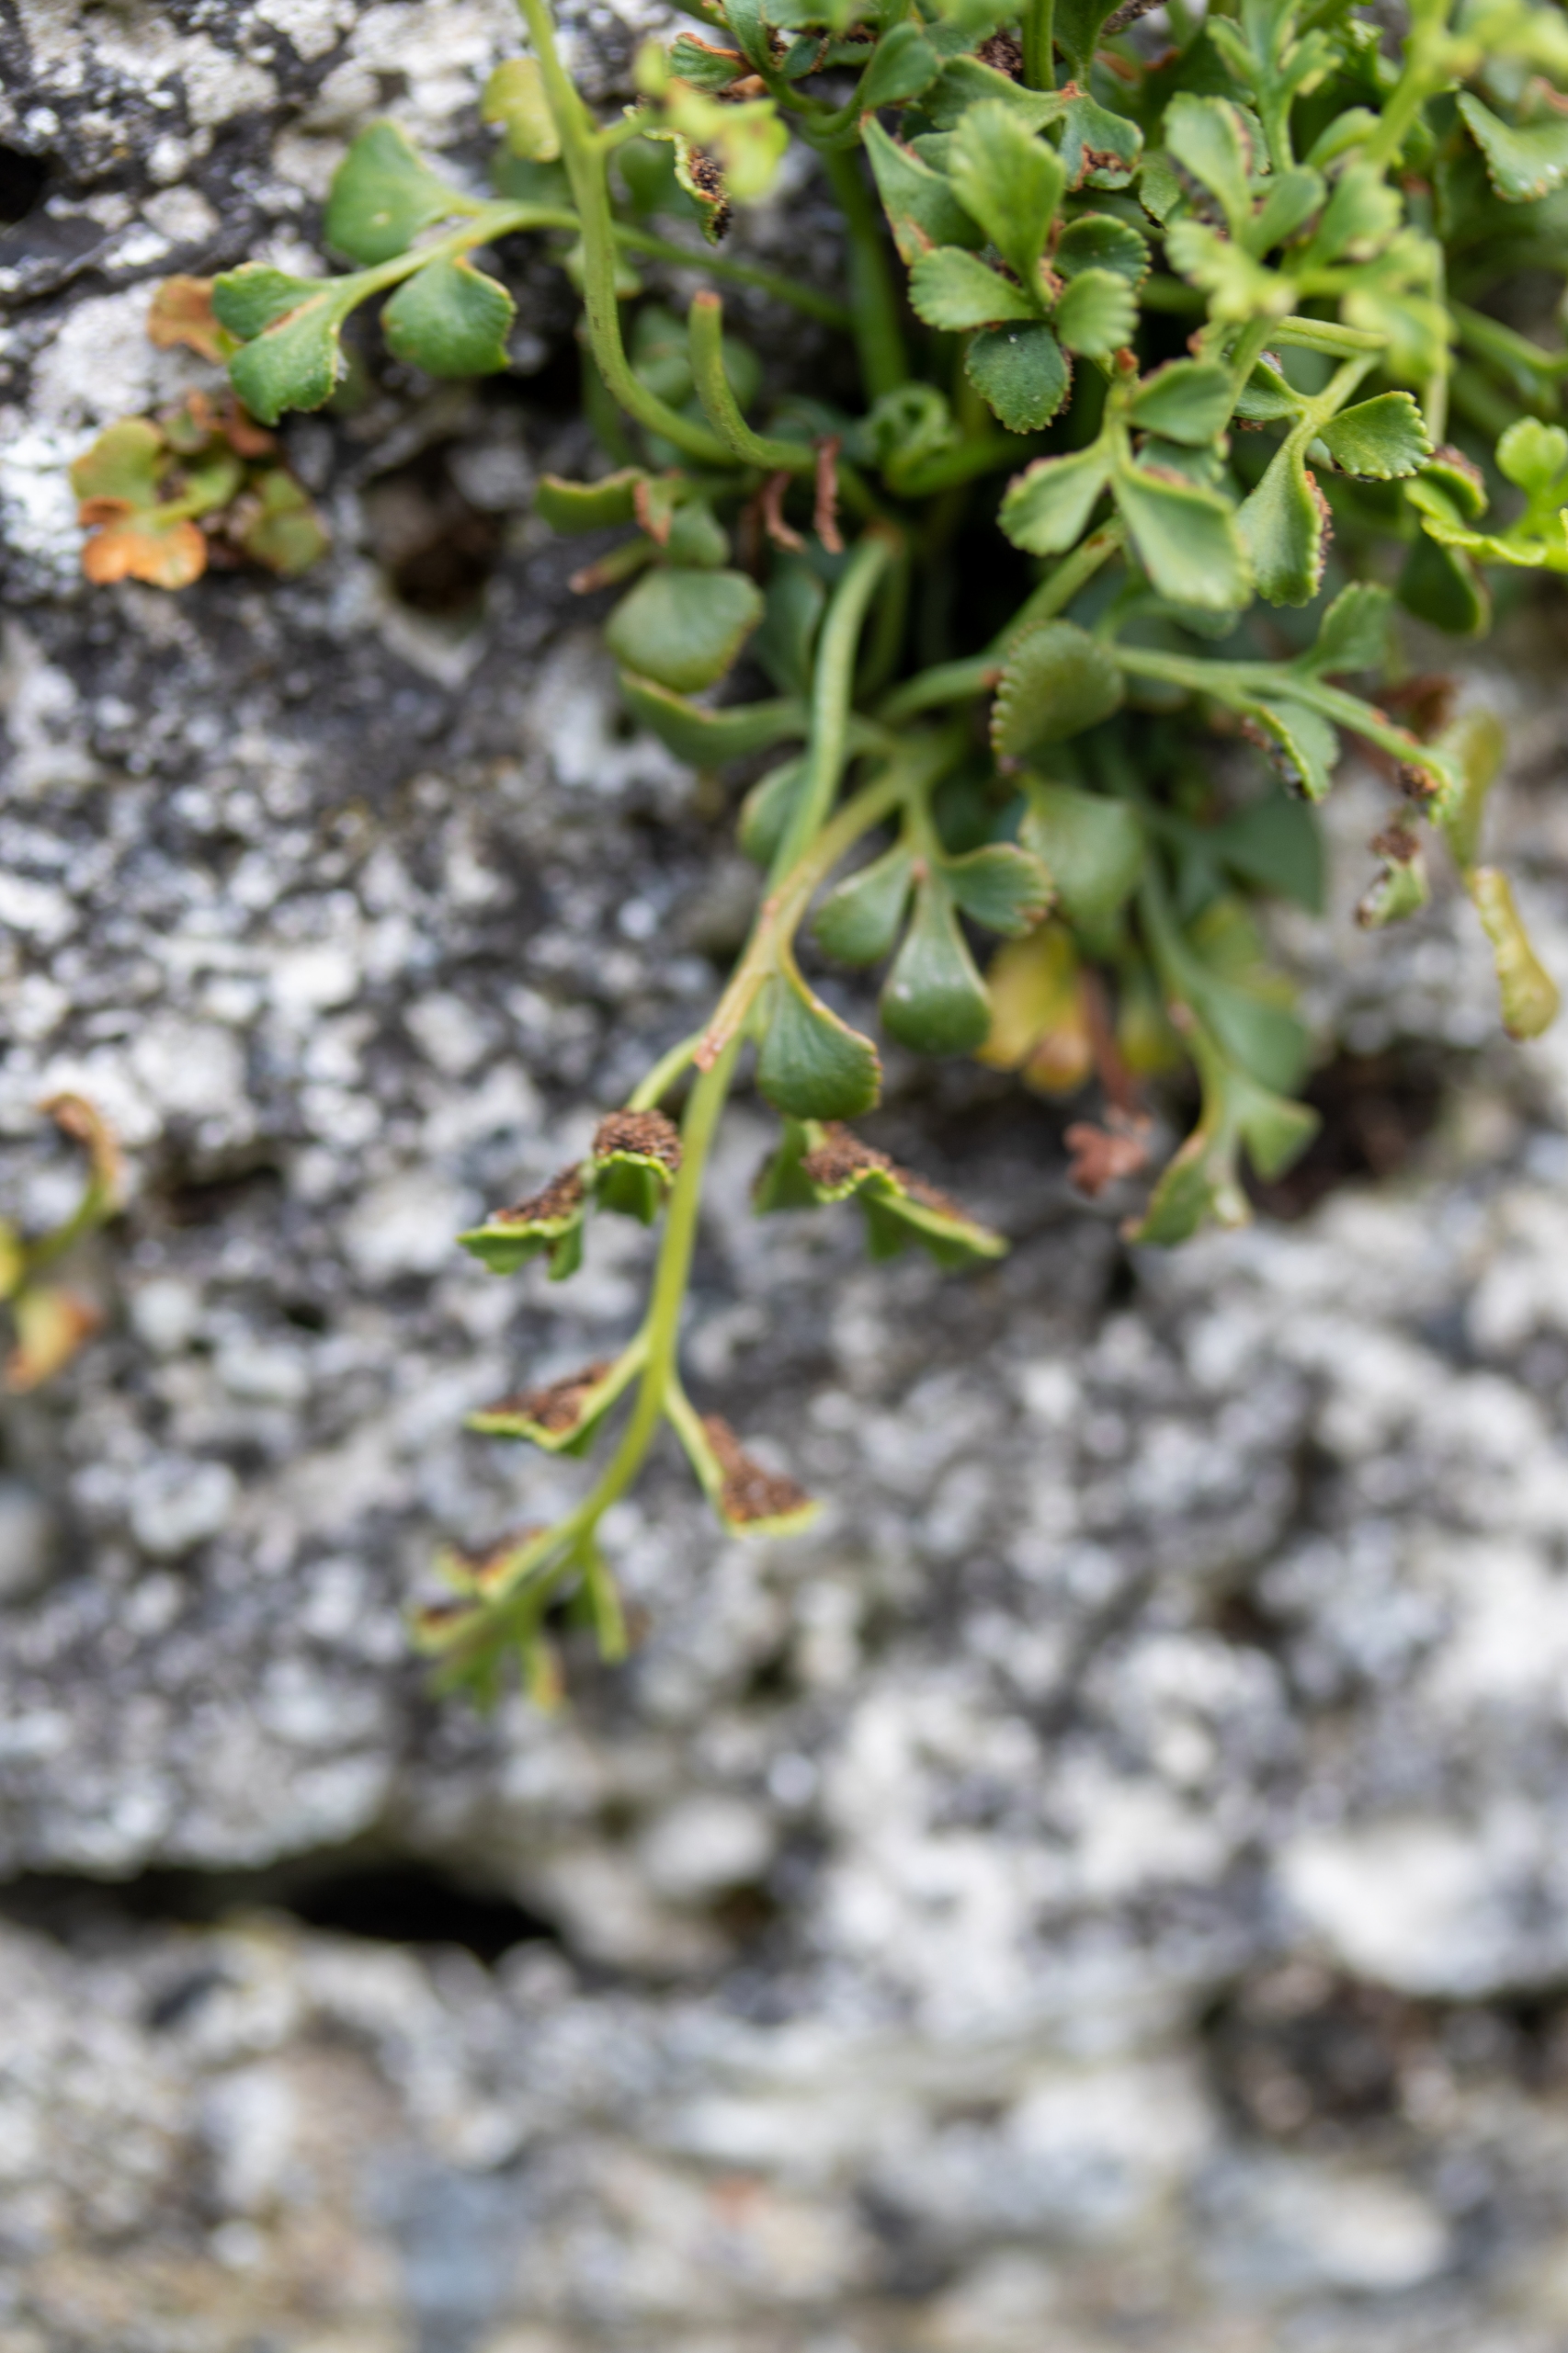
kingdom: Plantae
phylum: Tracheophyta
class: Polypodiopsida
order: Polypodiales
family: Aspleniaceae
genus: Asplenium
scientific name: Asplenium ruta-muraria
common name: Murrude
